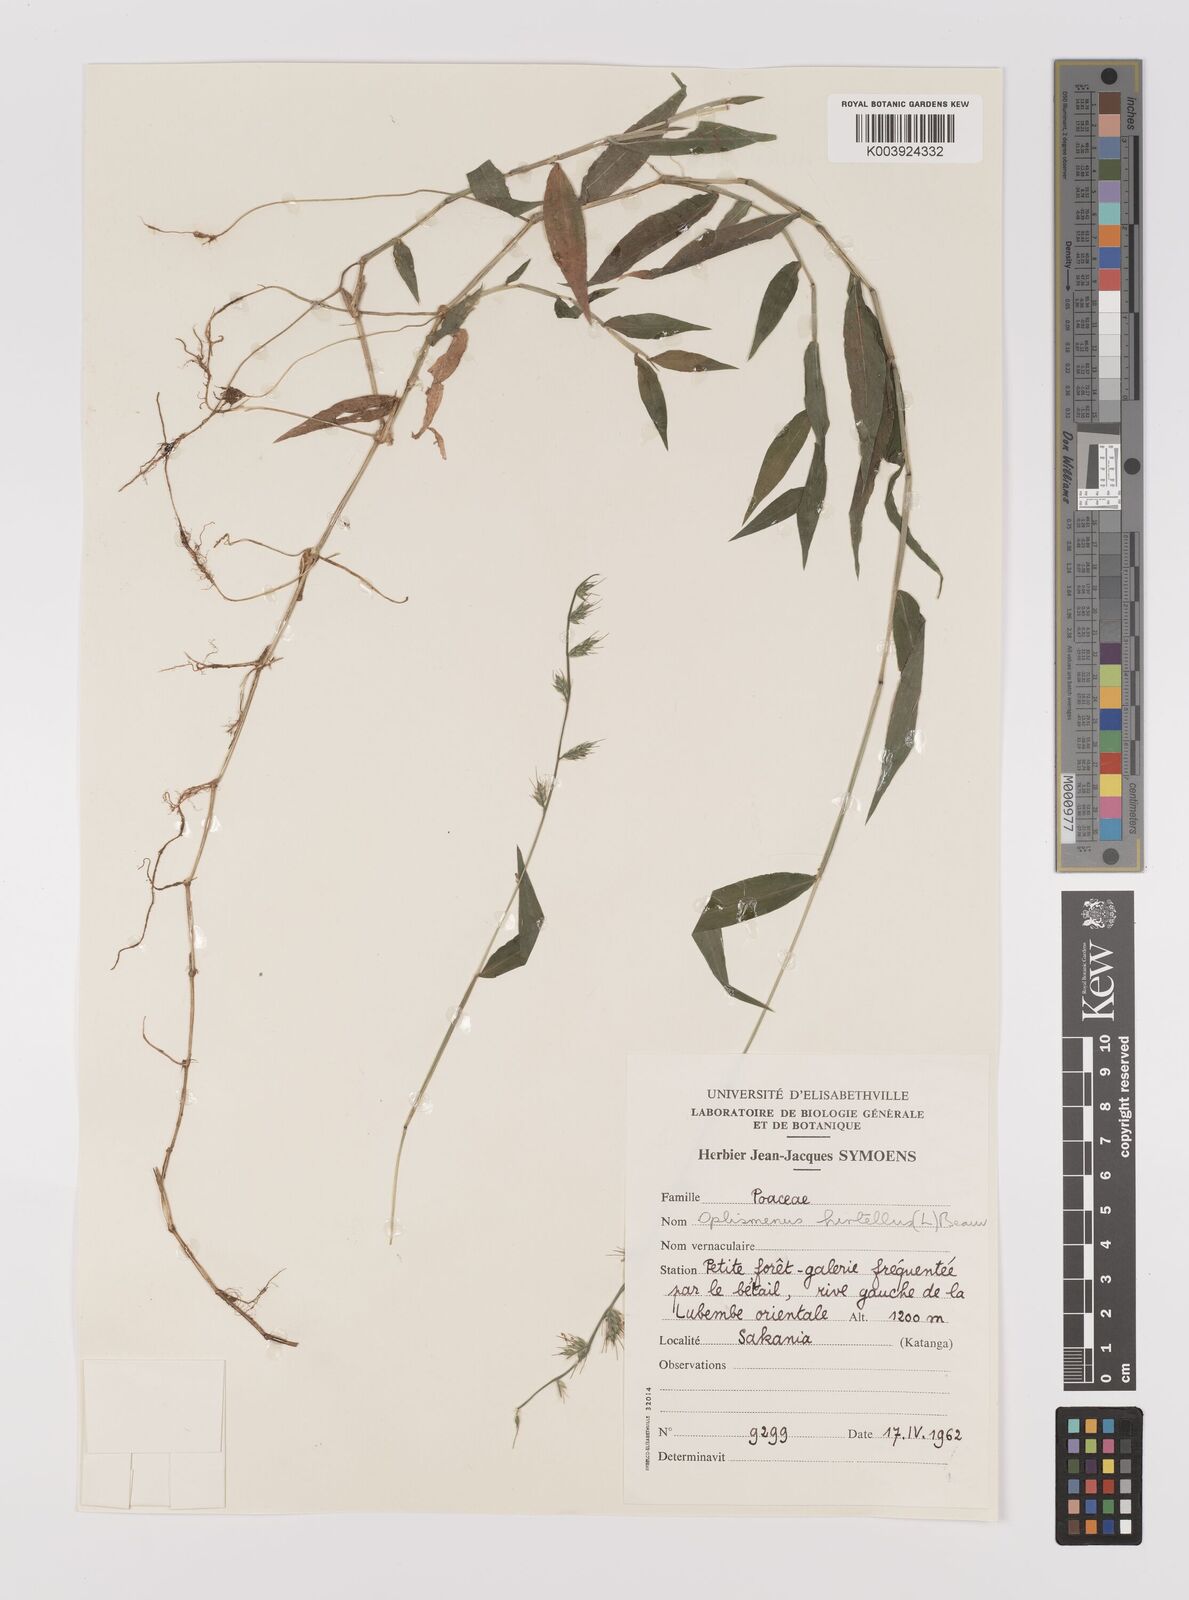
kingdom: Plantae
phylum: Tracheophyta
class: Liliopsida
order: Poales
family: Poaceae
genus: Oplismenus
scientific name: Oplismenus hirtellus
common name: Basketgrass
